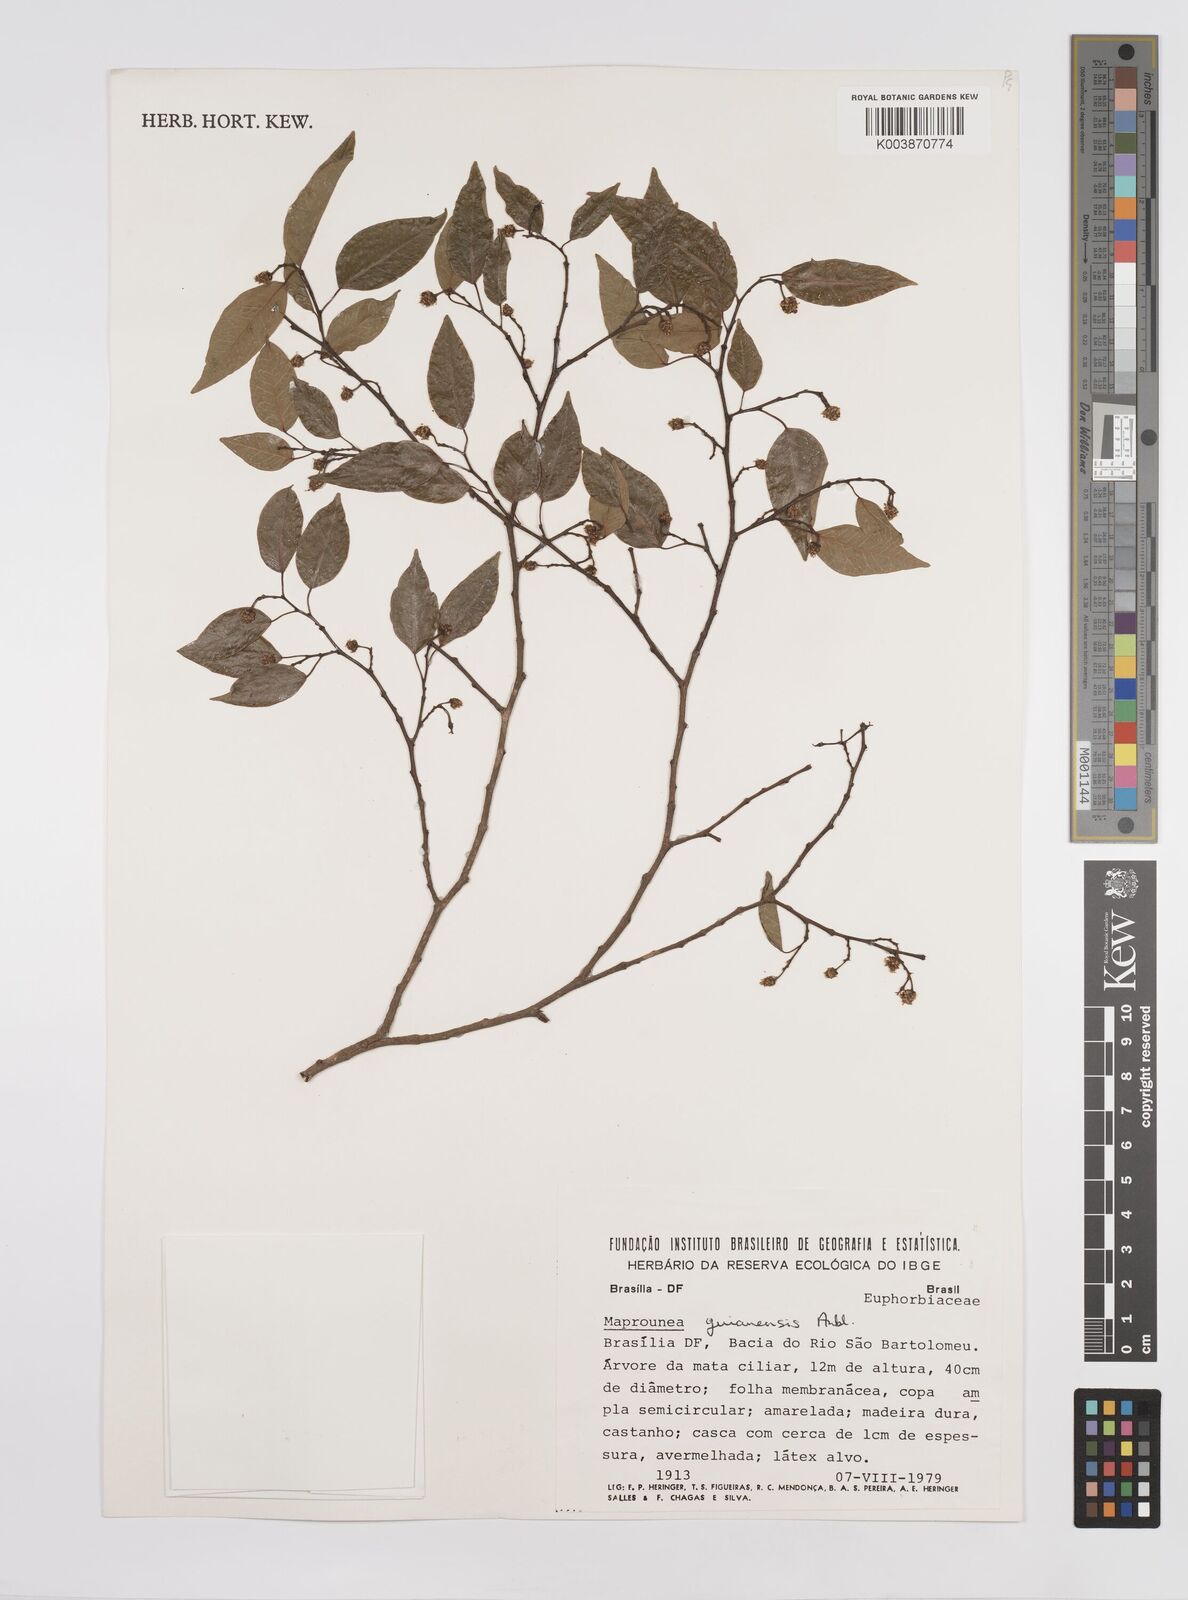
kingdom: Plantae
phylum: Tracheophyta
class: Magnoliopsida
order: Malpighiales
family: Euphorbiaceae
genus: Maprounea
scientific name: Maprounea guianensis
